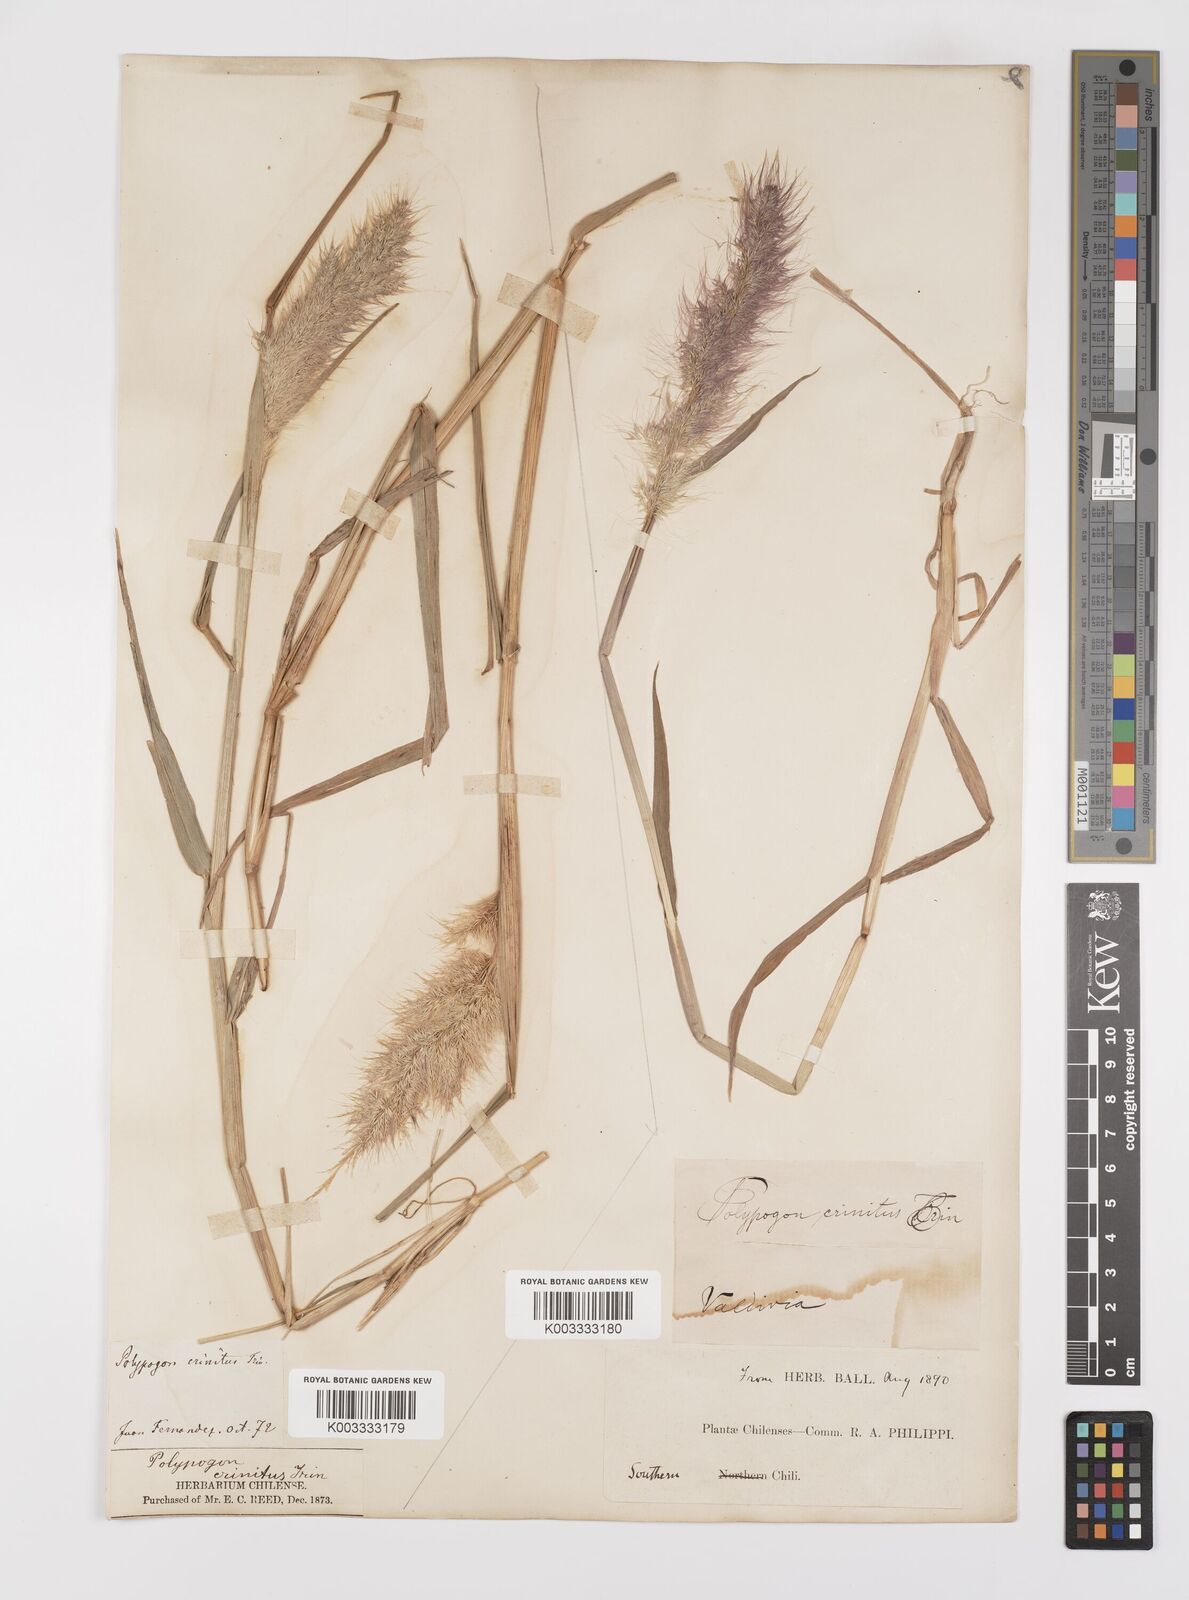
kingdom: Plantae
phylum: Tracheophyta
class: Liliopsida
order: Poales
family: Poaceae
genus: Polypogon
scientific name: Polypogon australis
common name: Chilean rabbitsfoot grass
